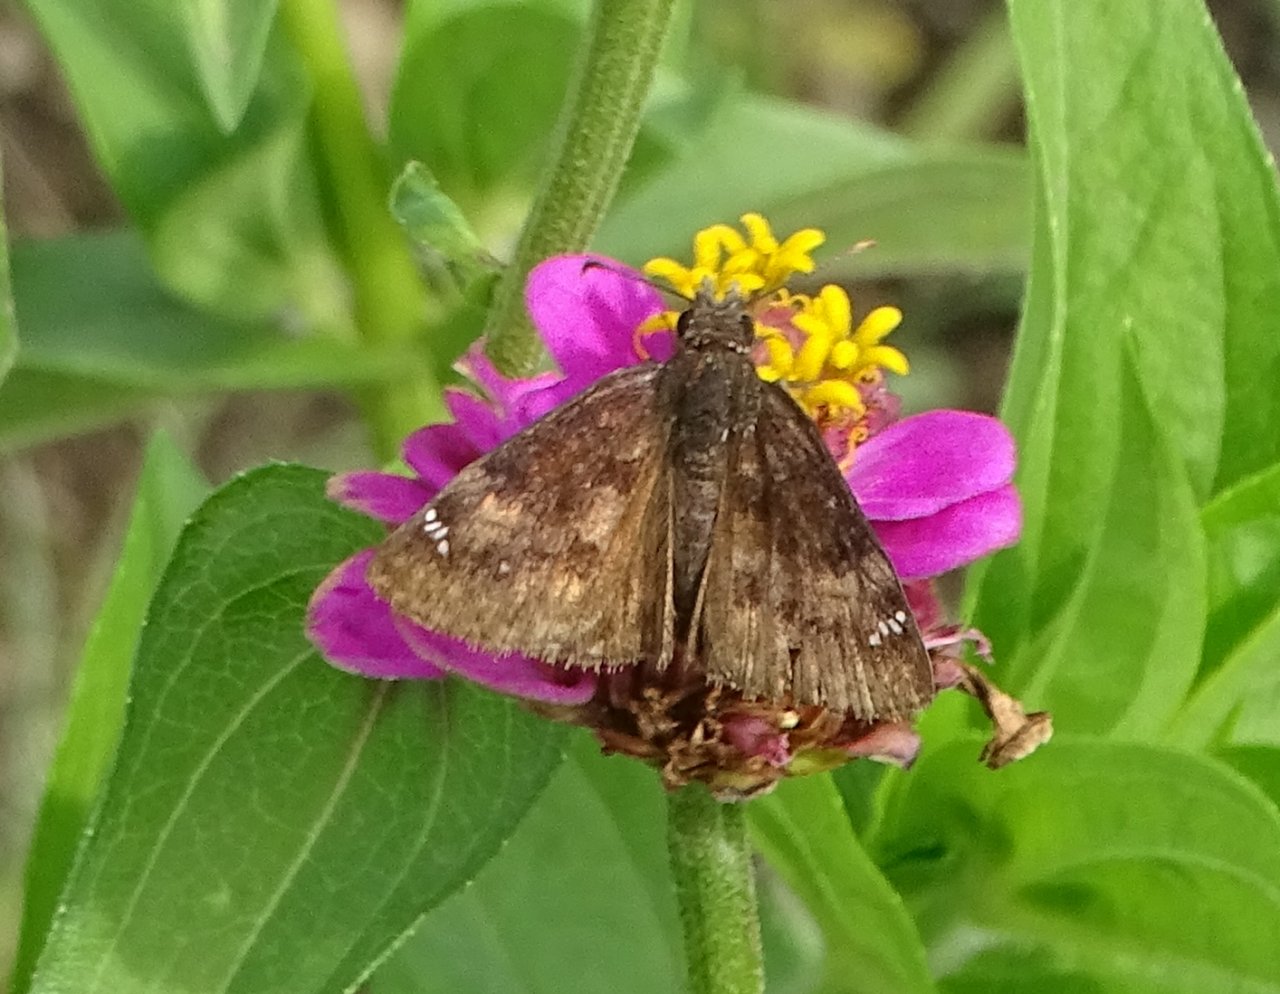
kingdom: Animalia
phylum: Arthropoda
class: Insecta
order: Lepidoptera
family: Hesperiidae
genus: Gesta
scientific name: Gesta
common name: Wild Indigo Duskywing
